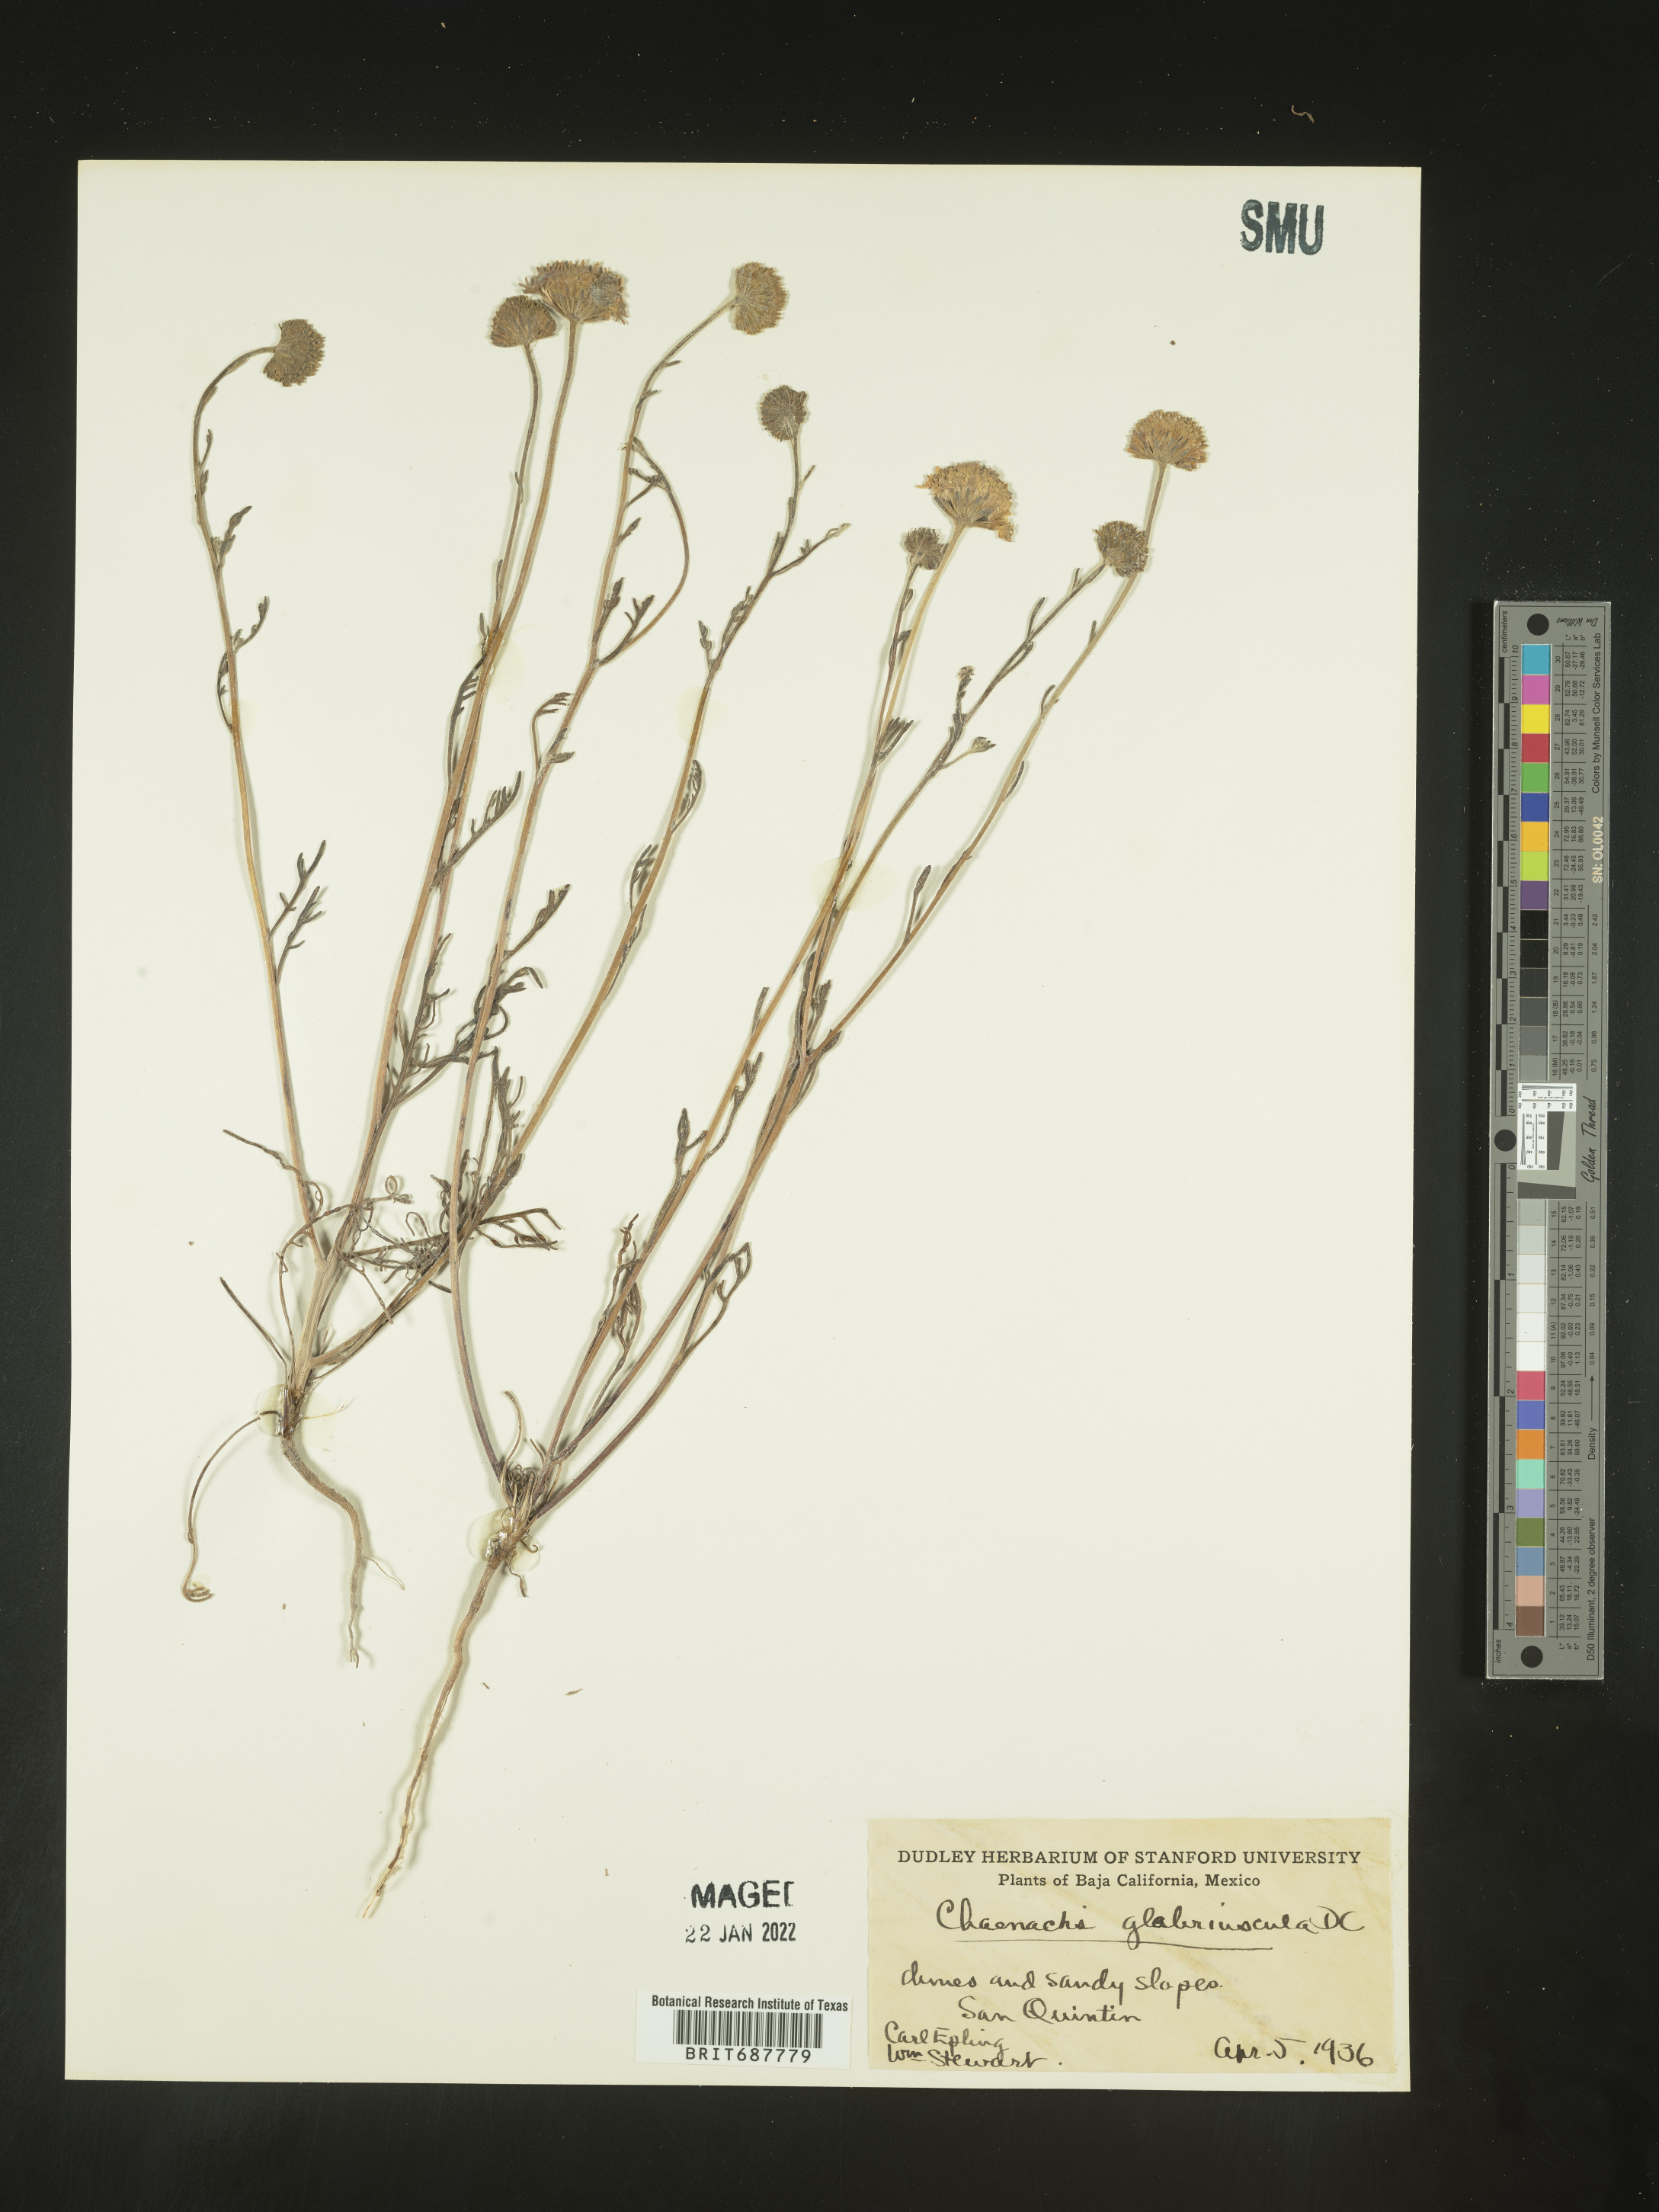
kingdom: Plantae
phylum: Tracheophyta
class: Magnoliopsida
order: Asterales
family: Asteraceae
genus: Chaenactis
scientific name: Chaenactis
